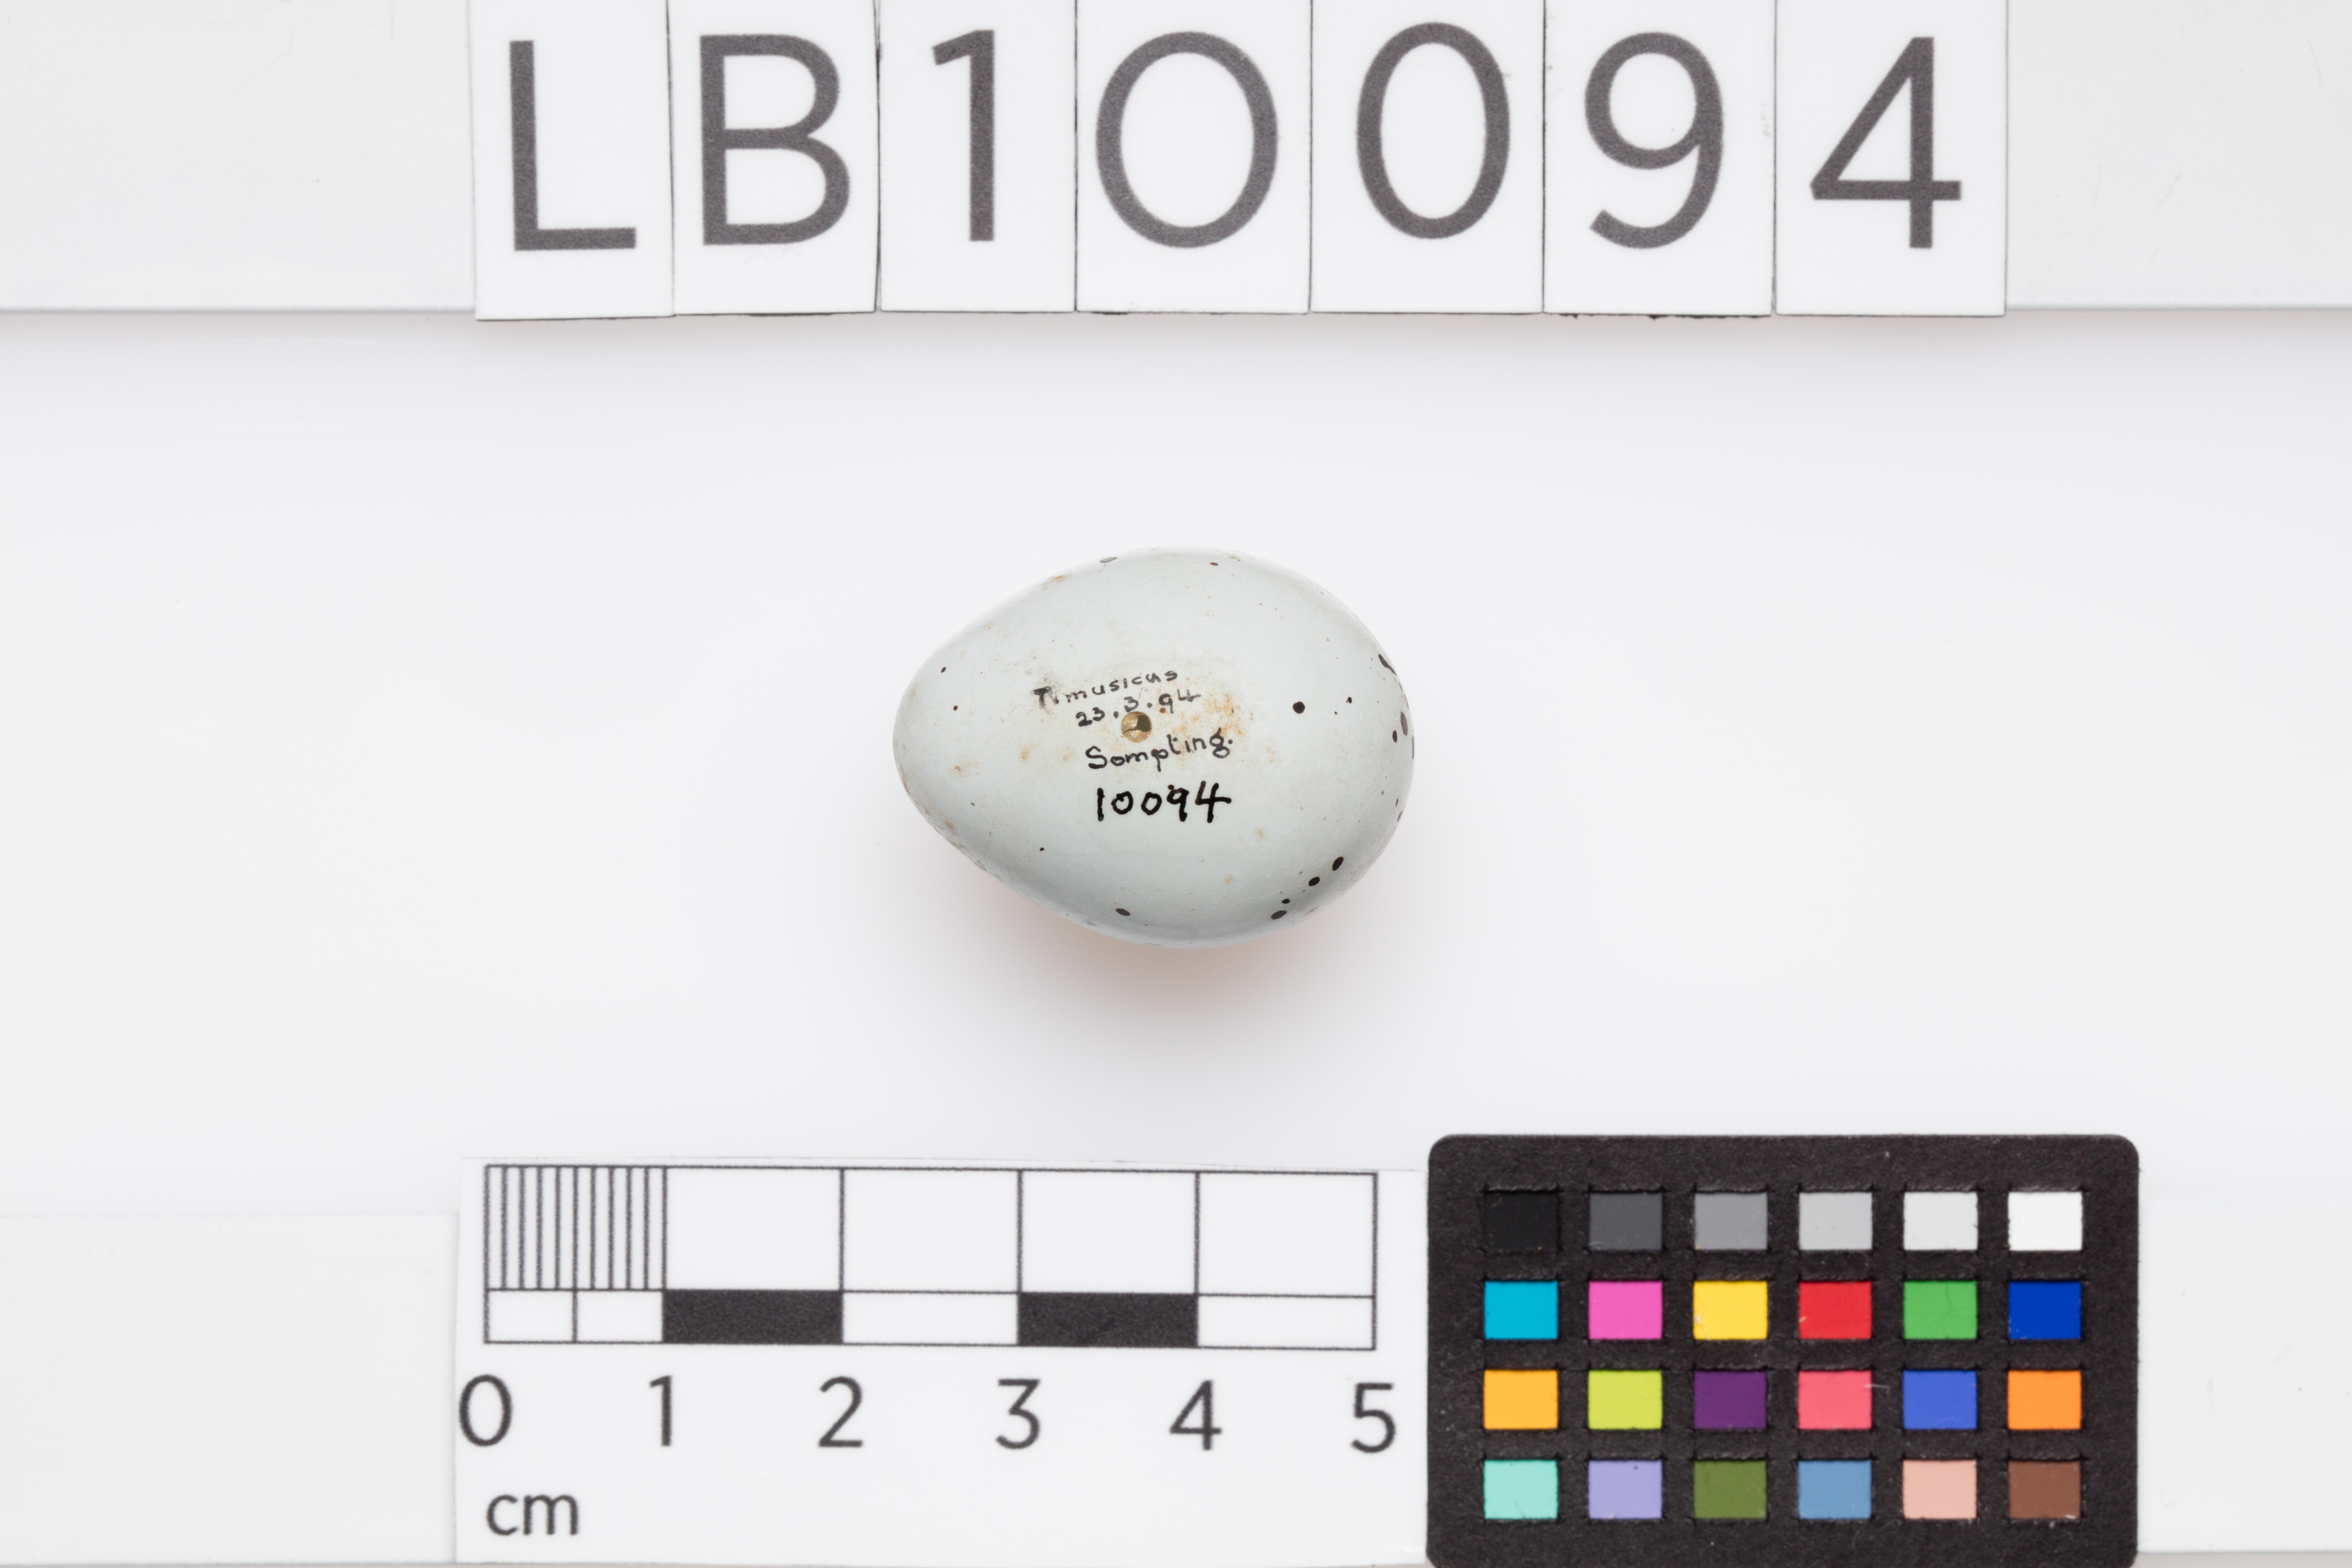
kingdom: Animalia
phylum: Chordata
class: Aves
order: Passeriformes
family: Turdidae
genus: Turdus
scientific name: Turdus philomelos
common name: Song thrush
